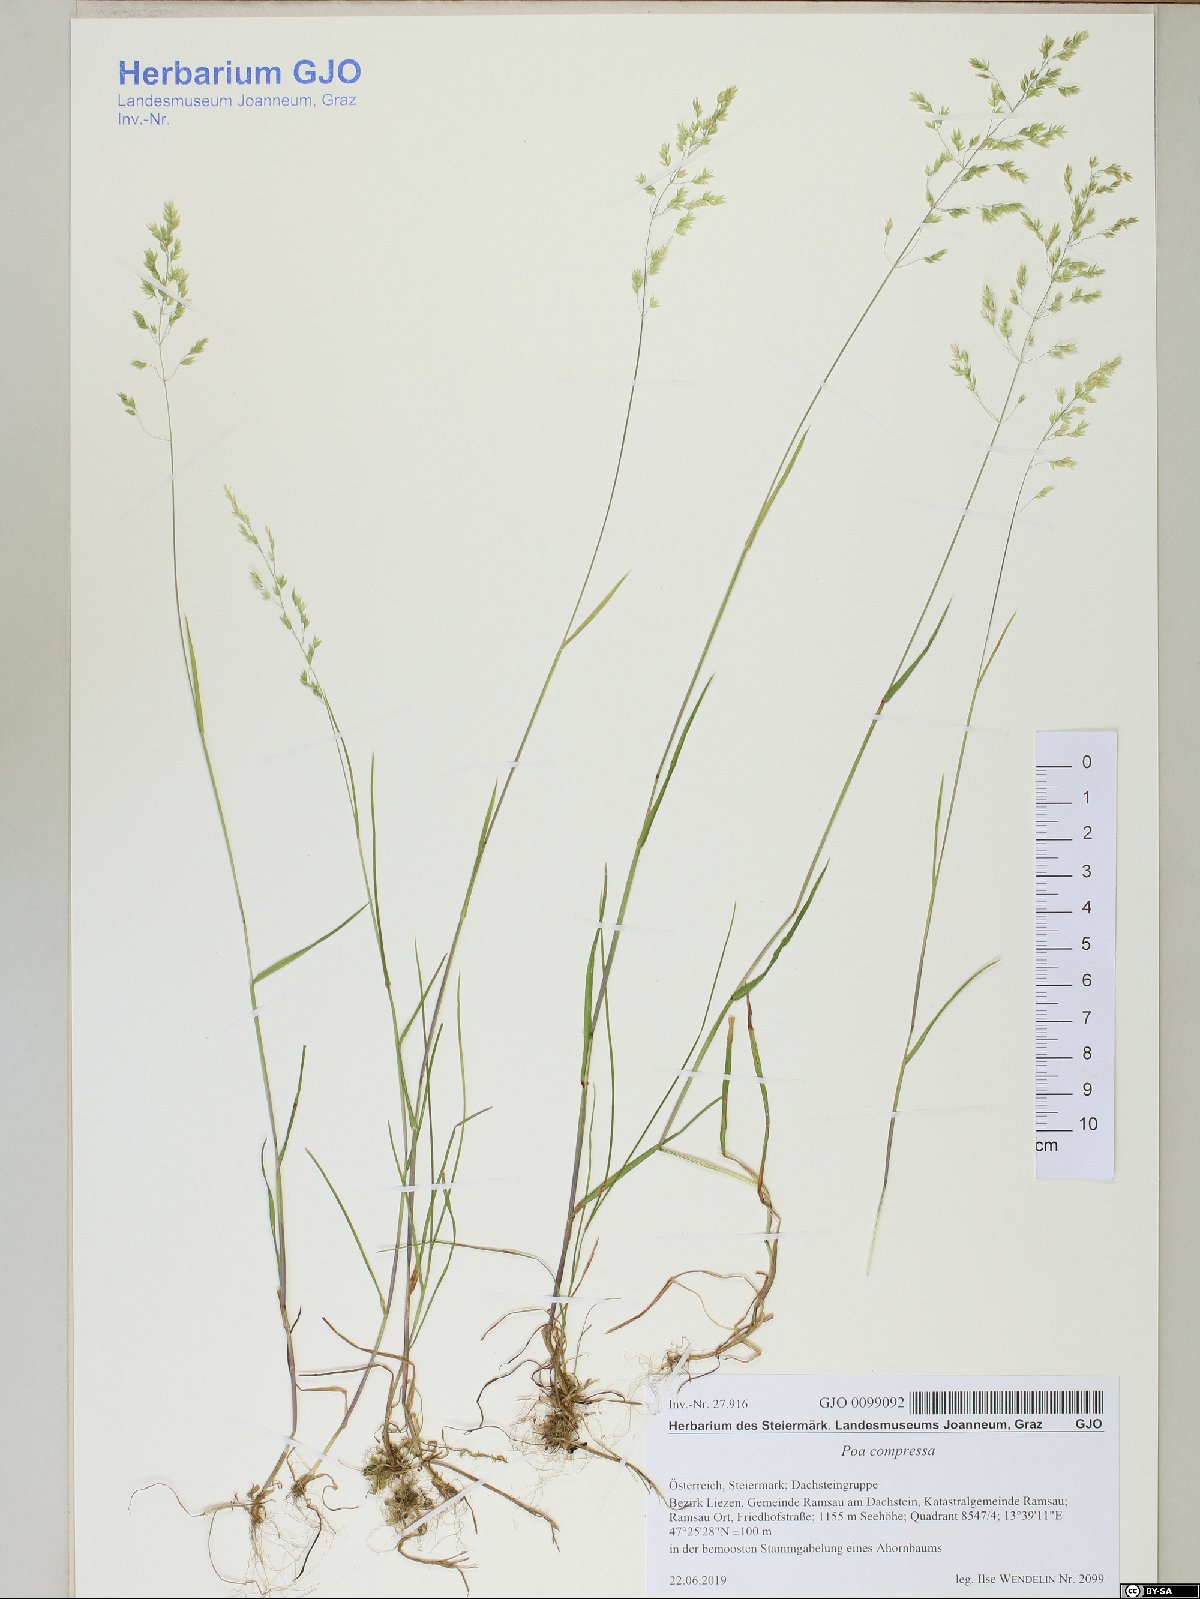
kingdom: Plantae
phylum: Tracheophyta
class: Liliopsida
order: Poales
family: Poaceae
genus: Poa
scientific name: Poa compressa
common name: Canada bluegrass
